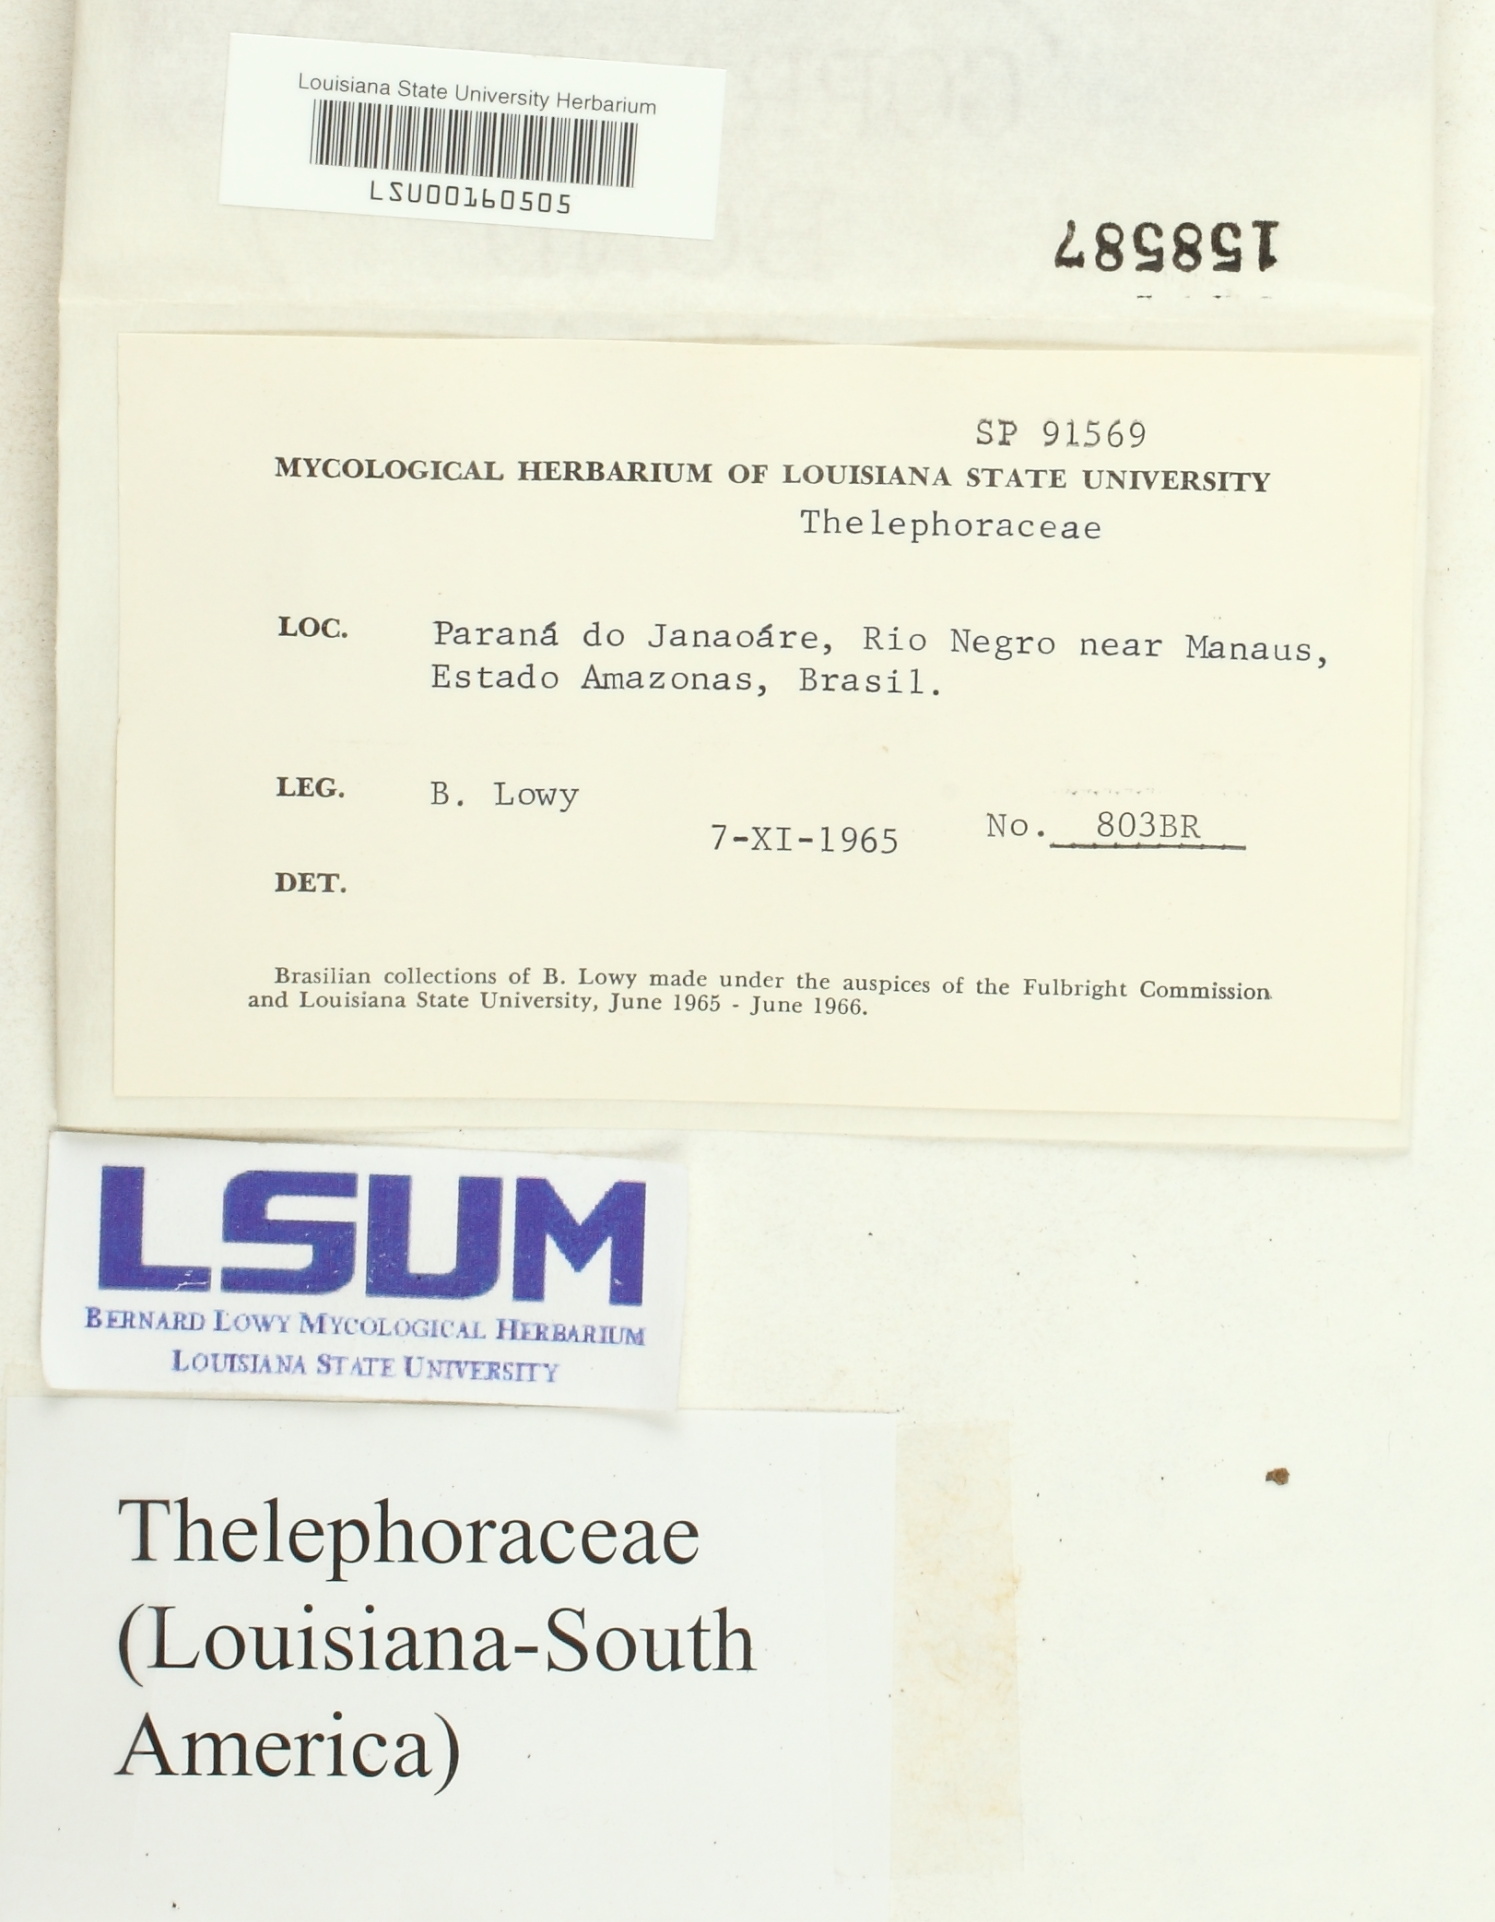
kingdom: Fungi
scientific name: Fungi
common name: Fungi
